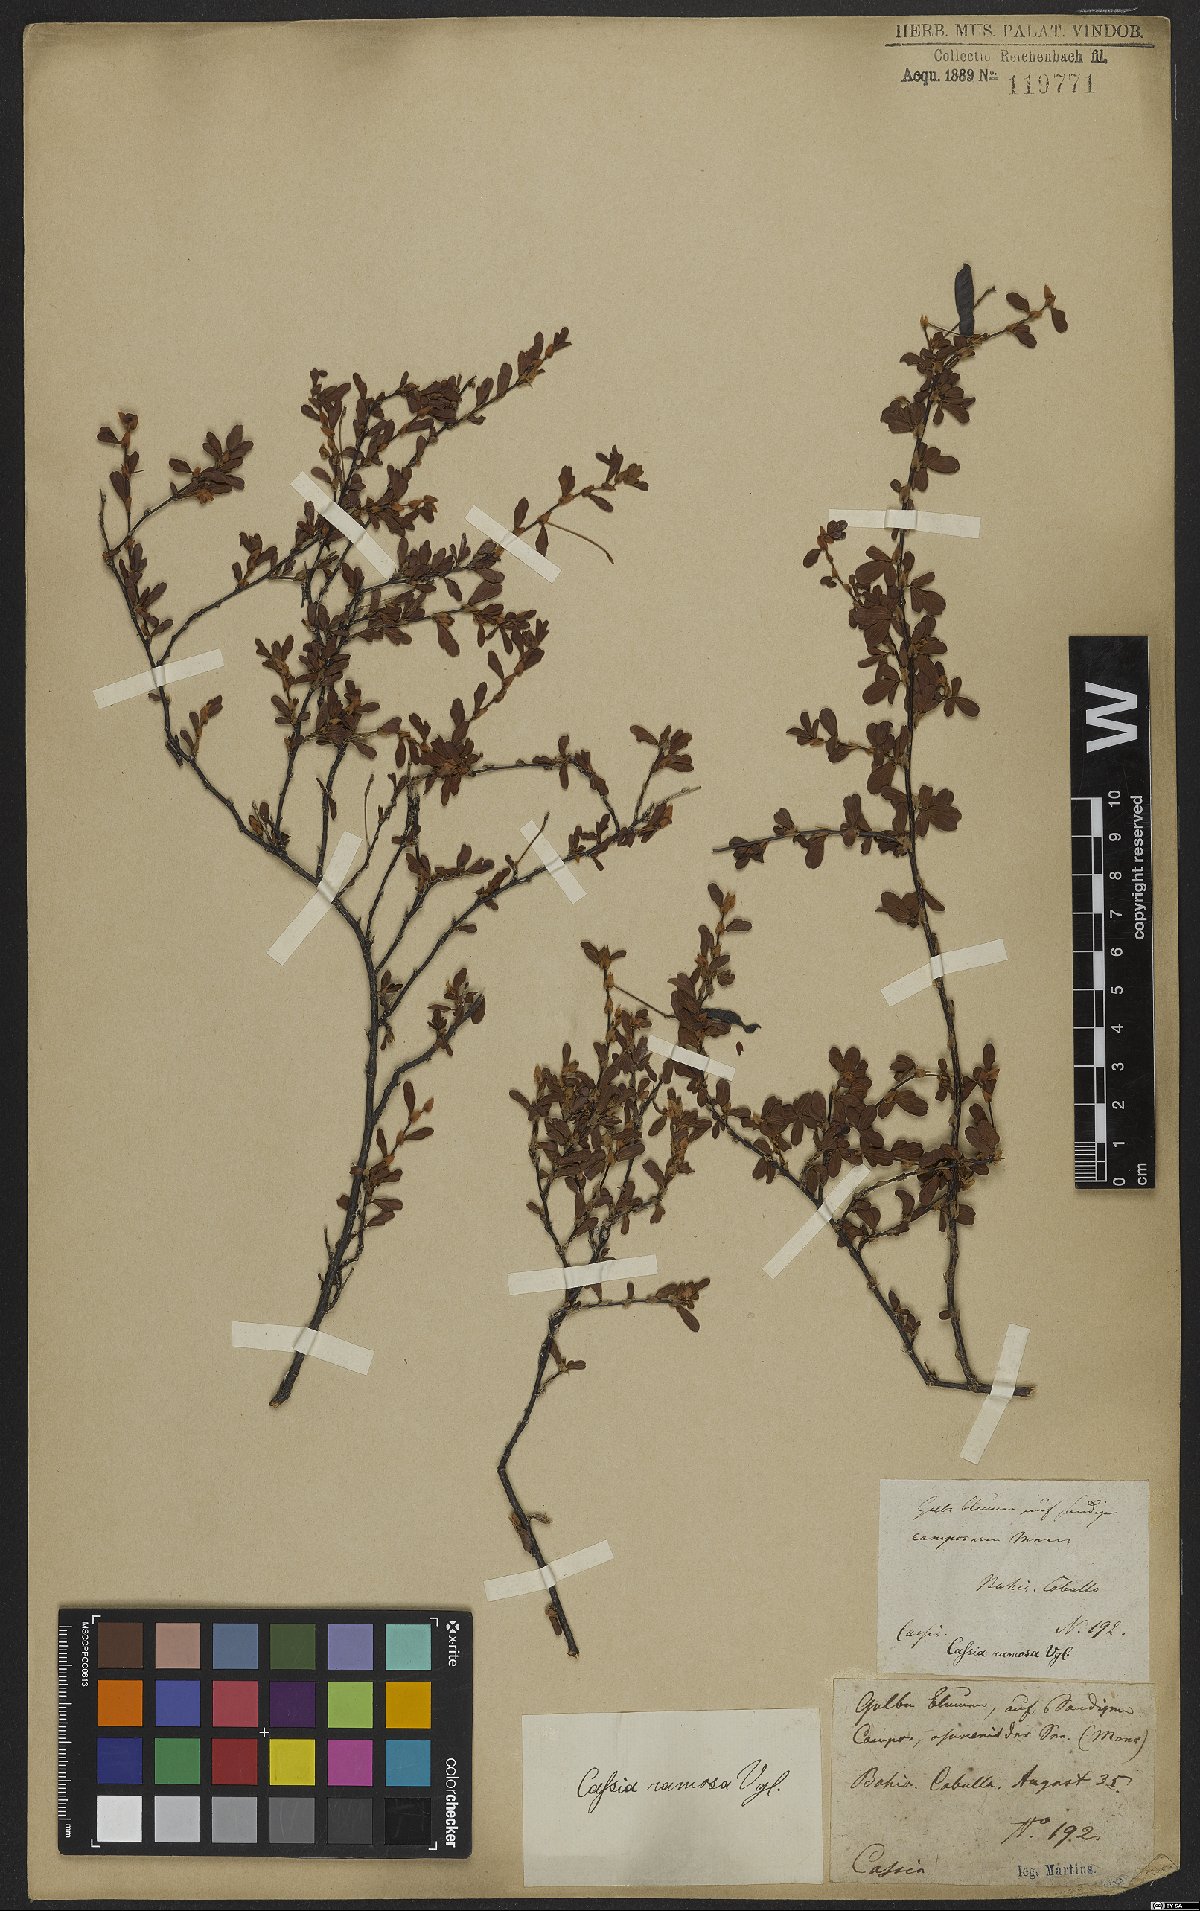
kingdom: Plantae
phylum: Tracheophyta
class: Magnoliopsida
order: Fabales
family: Fabaceae
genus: Senna
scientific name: Senna uniflora
